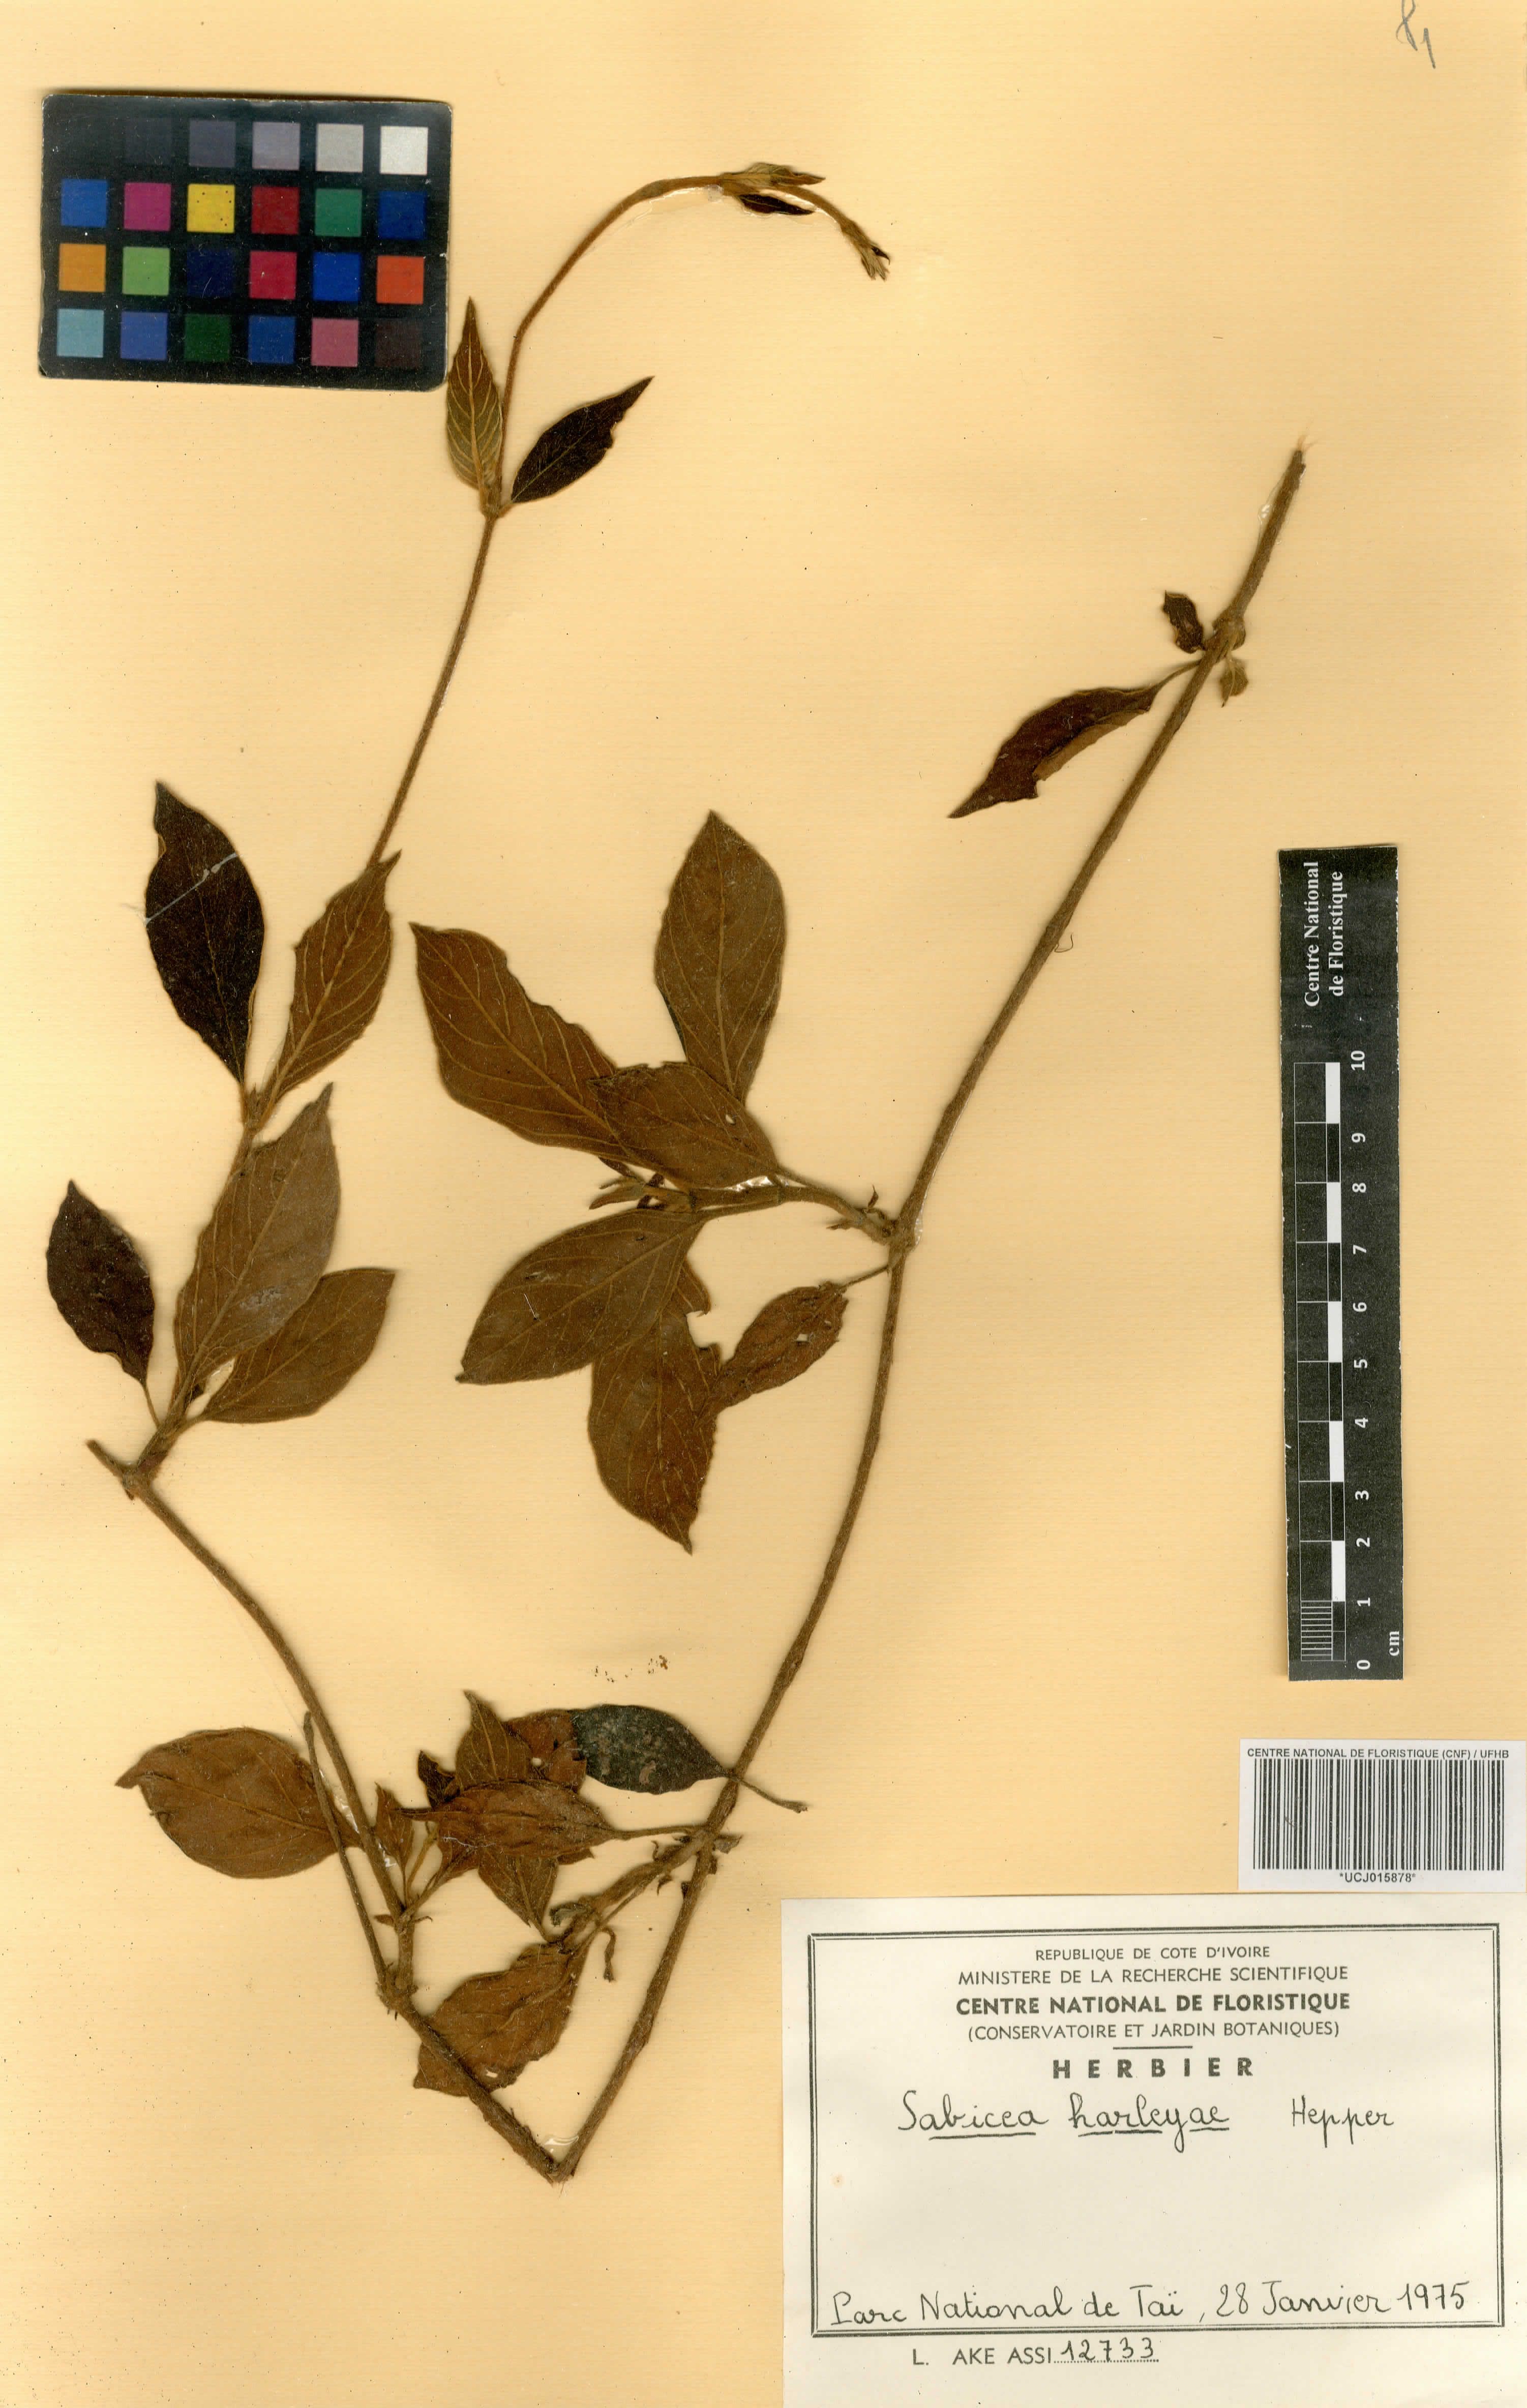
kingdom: Plantae
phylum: Tracheophyta
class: Magnoliopsida
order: Gentianales
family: Rubiaceae
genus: Sabicea
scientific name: Sabicea harleyae
